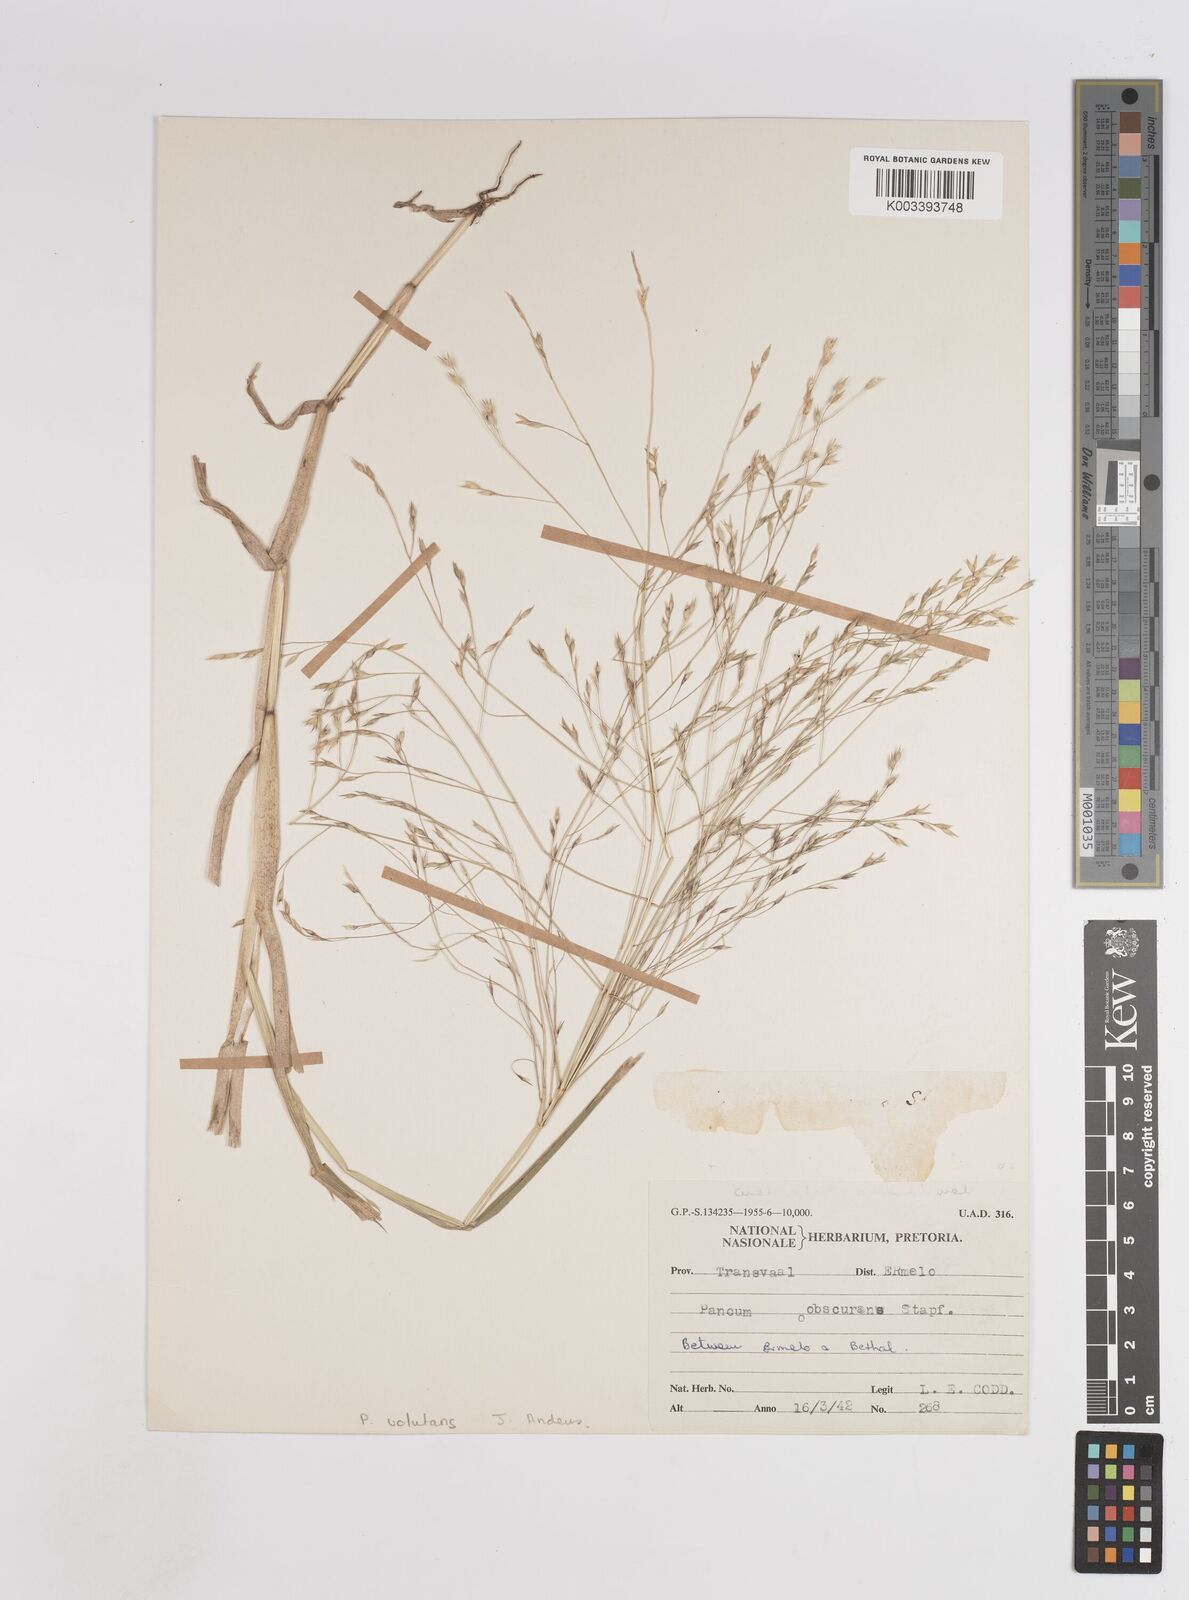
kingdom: Plantae
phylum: Tracheophyta
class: Liliopsida
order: Poales
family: Poaceae
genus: Panicum
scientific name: Panicum volutans
